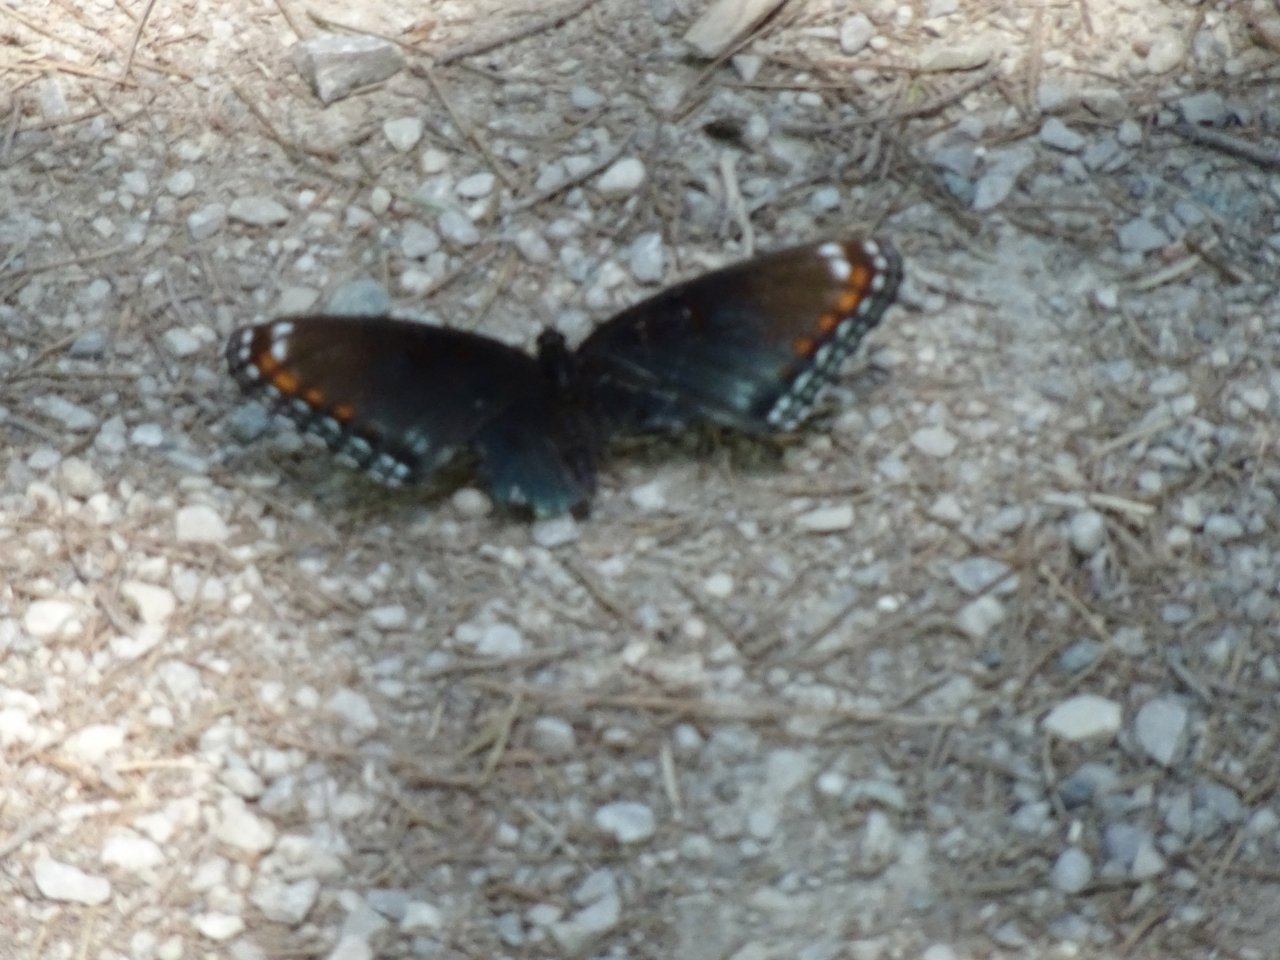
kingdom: Animalia
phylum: Arthropoda
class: Insecta
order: Lepidoptera
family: Nymphalidae
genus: Limenitis
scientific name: Limenitis astyanax
